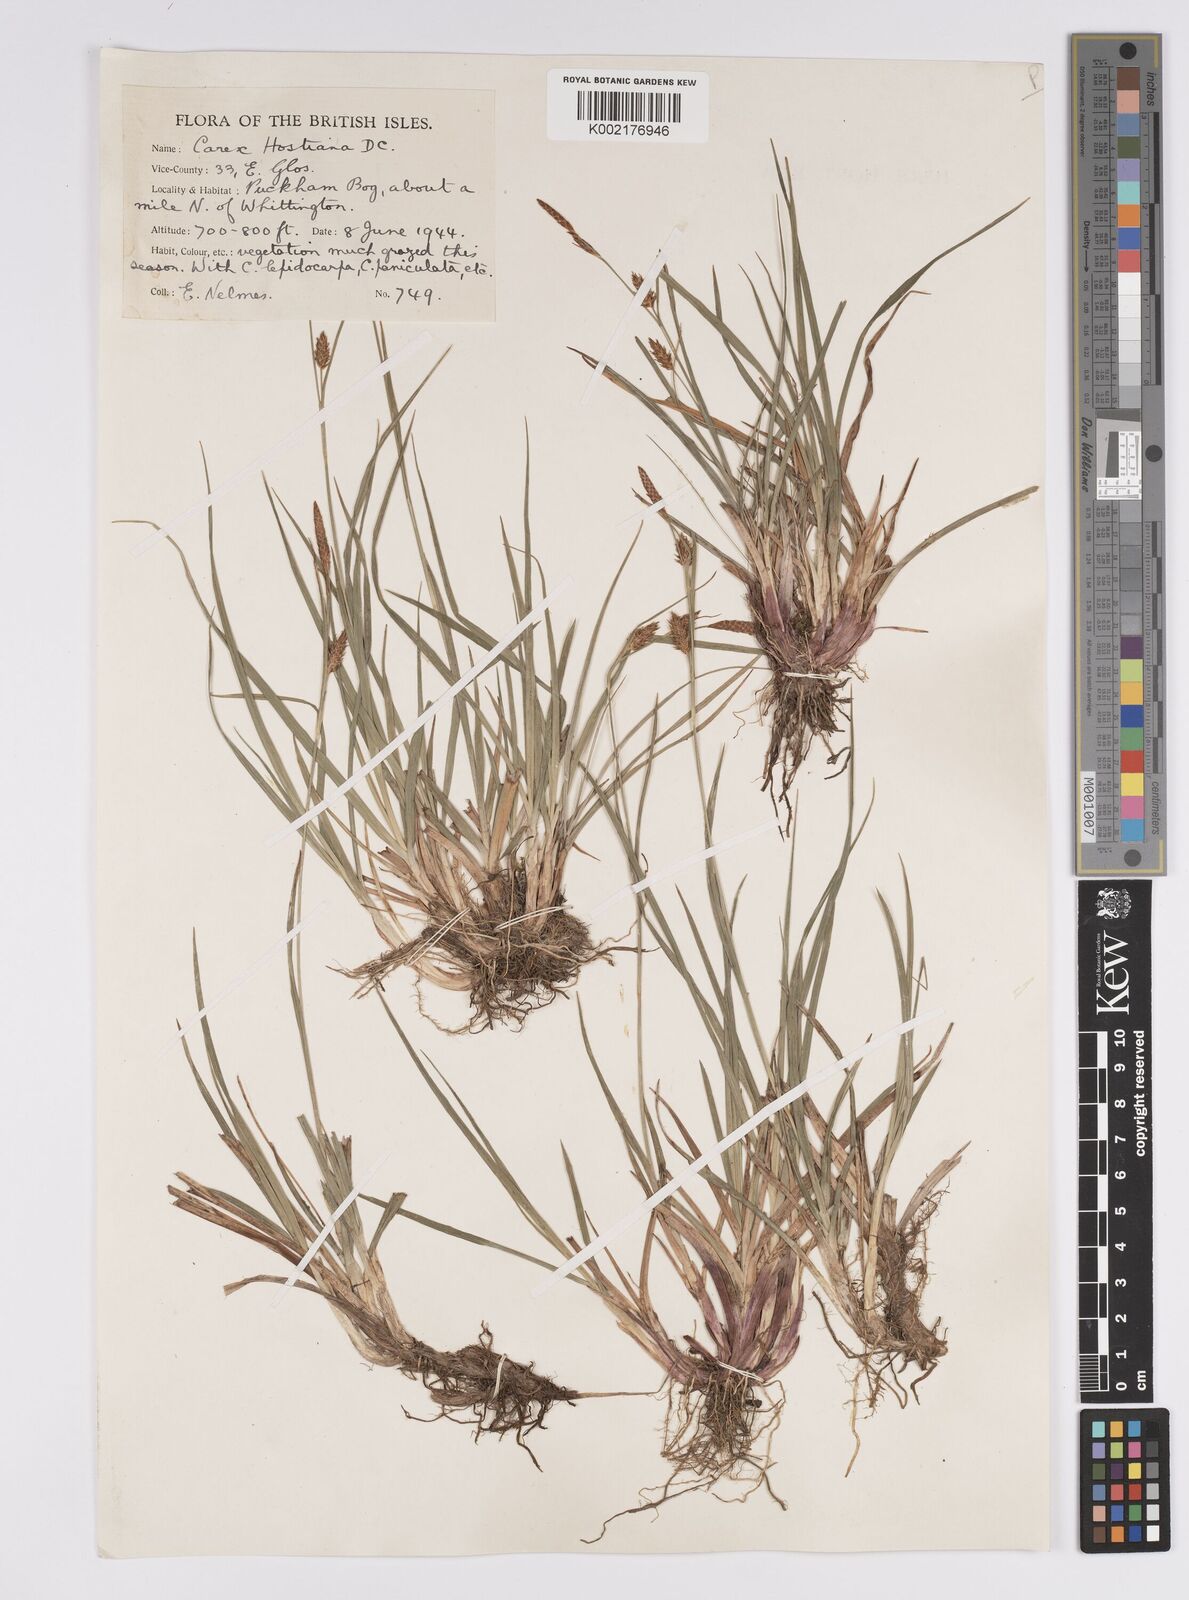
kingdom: Plantae
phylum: Tracheophyta
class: Liliopsida
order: Poales
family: Cyperaceae
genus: Carex
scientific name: Carex hostiana
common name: Tawny sedge
